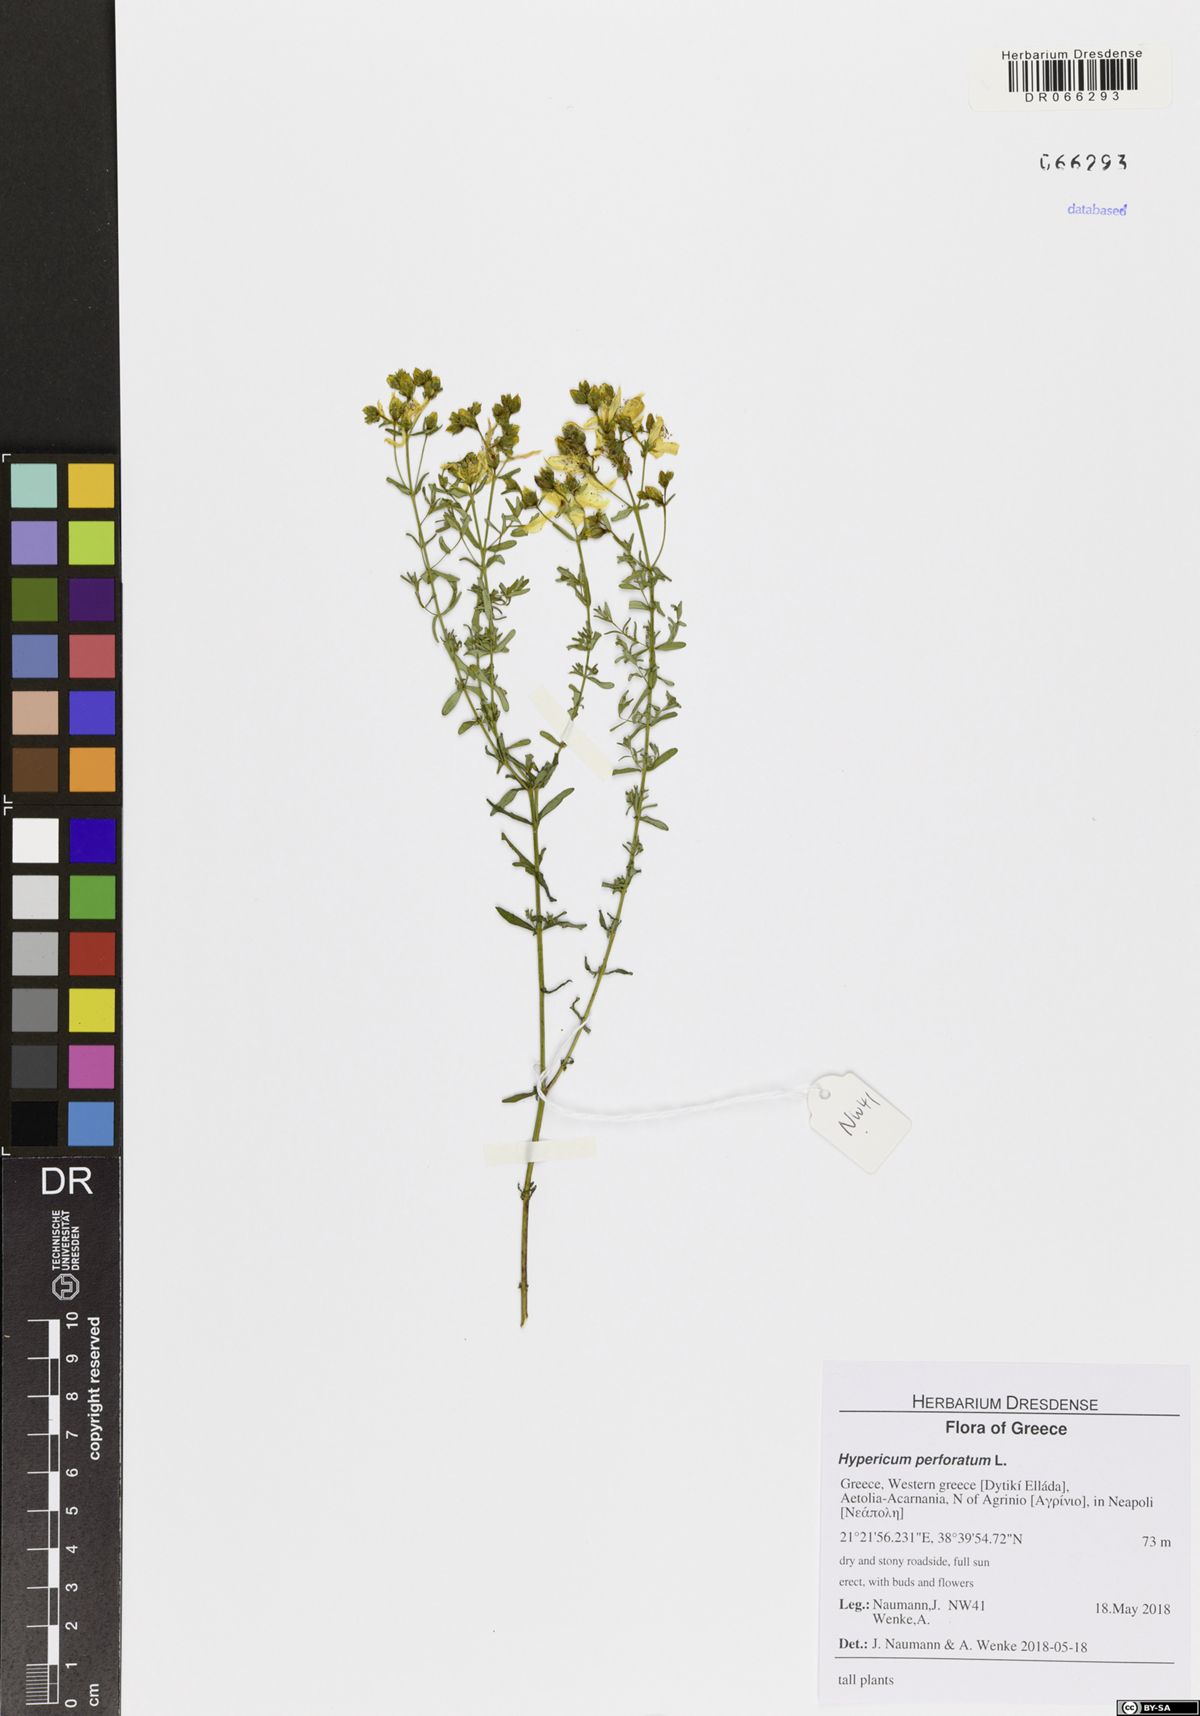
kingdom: Plantae
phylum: Tracheophyta
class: Magnoliopsida
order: Malpighiales
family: Hypericaceae
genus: Hypericum
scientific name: Hypericum perforatum
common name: Common st. johnswort
